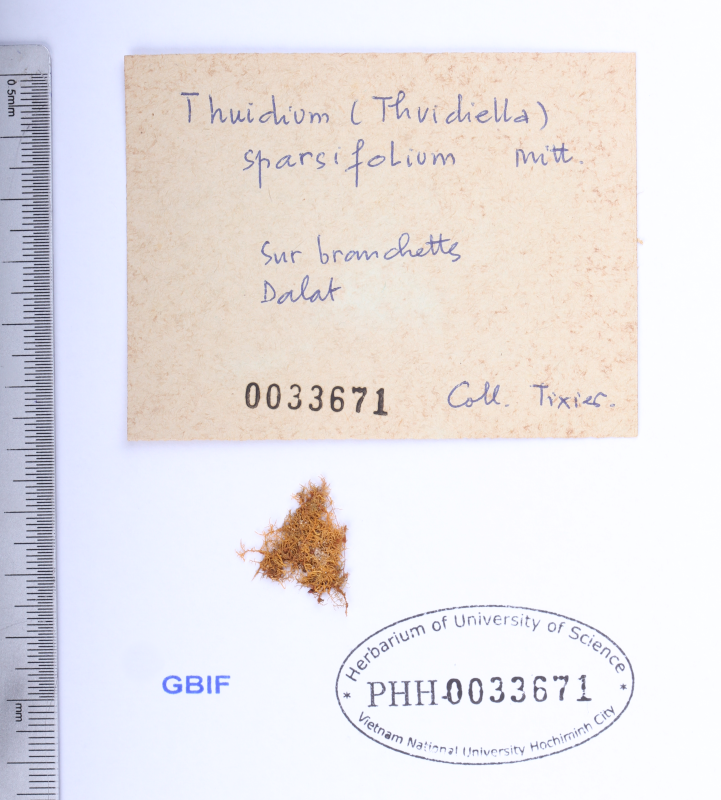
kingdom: Plantae
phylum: Bryophyta
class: Bryopsida
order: Hypnales
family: Thuidiaceae
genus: Pelekium
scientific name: Pelekium versicolor
